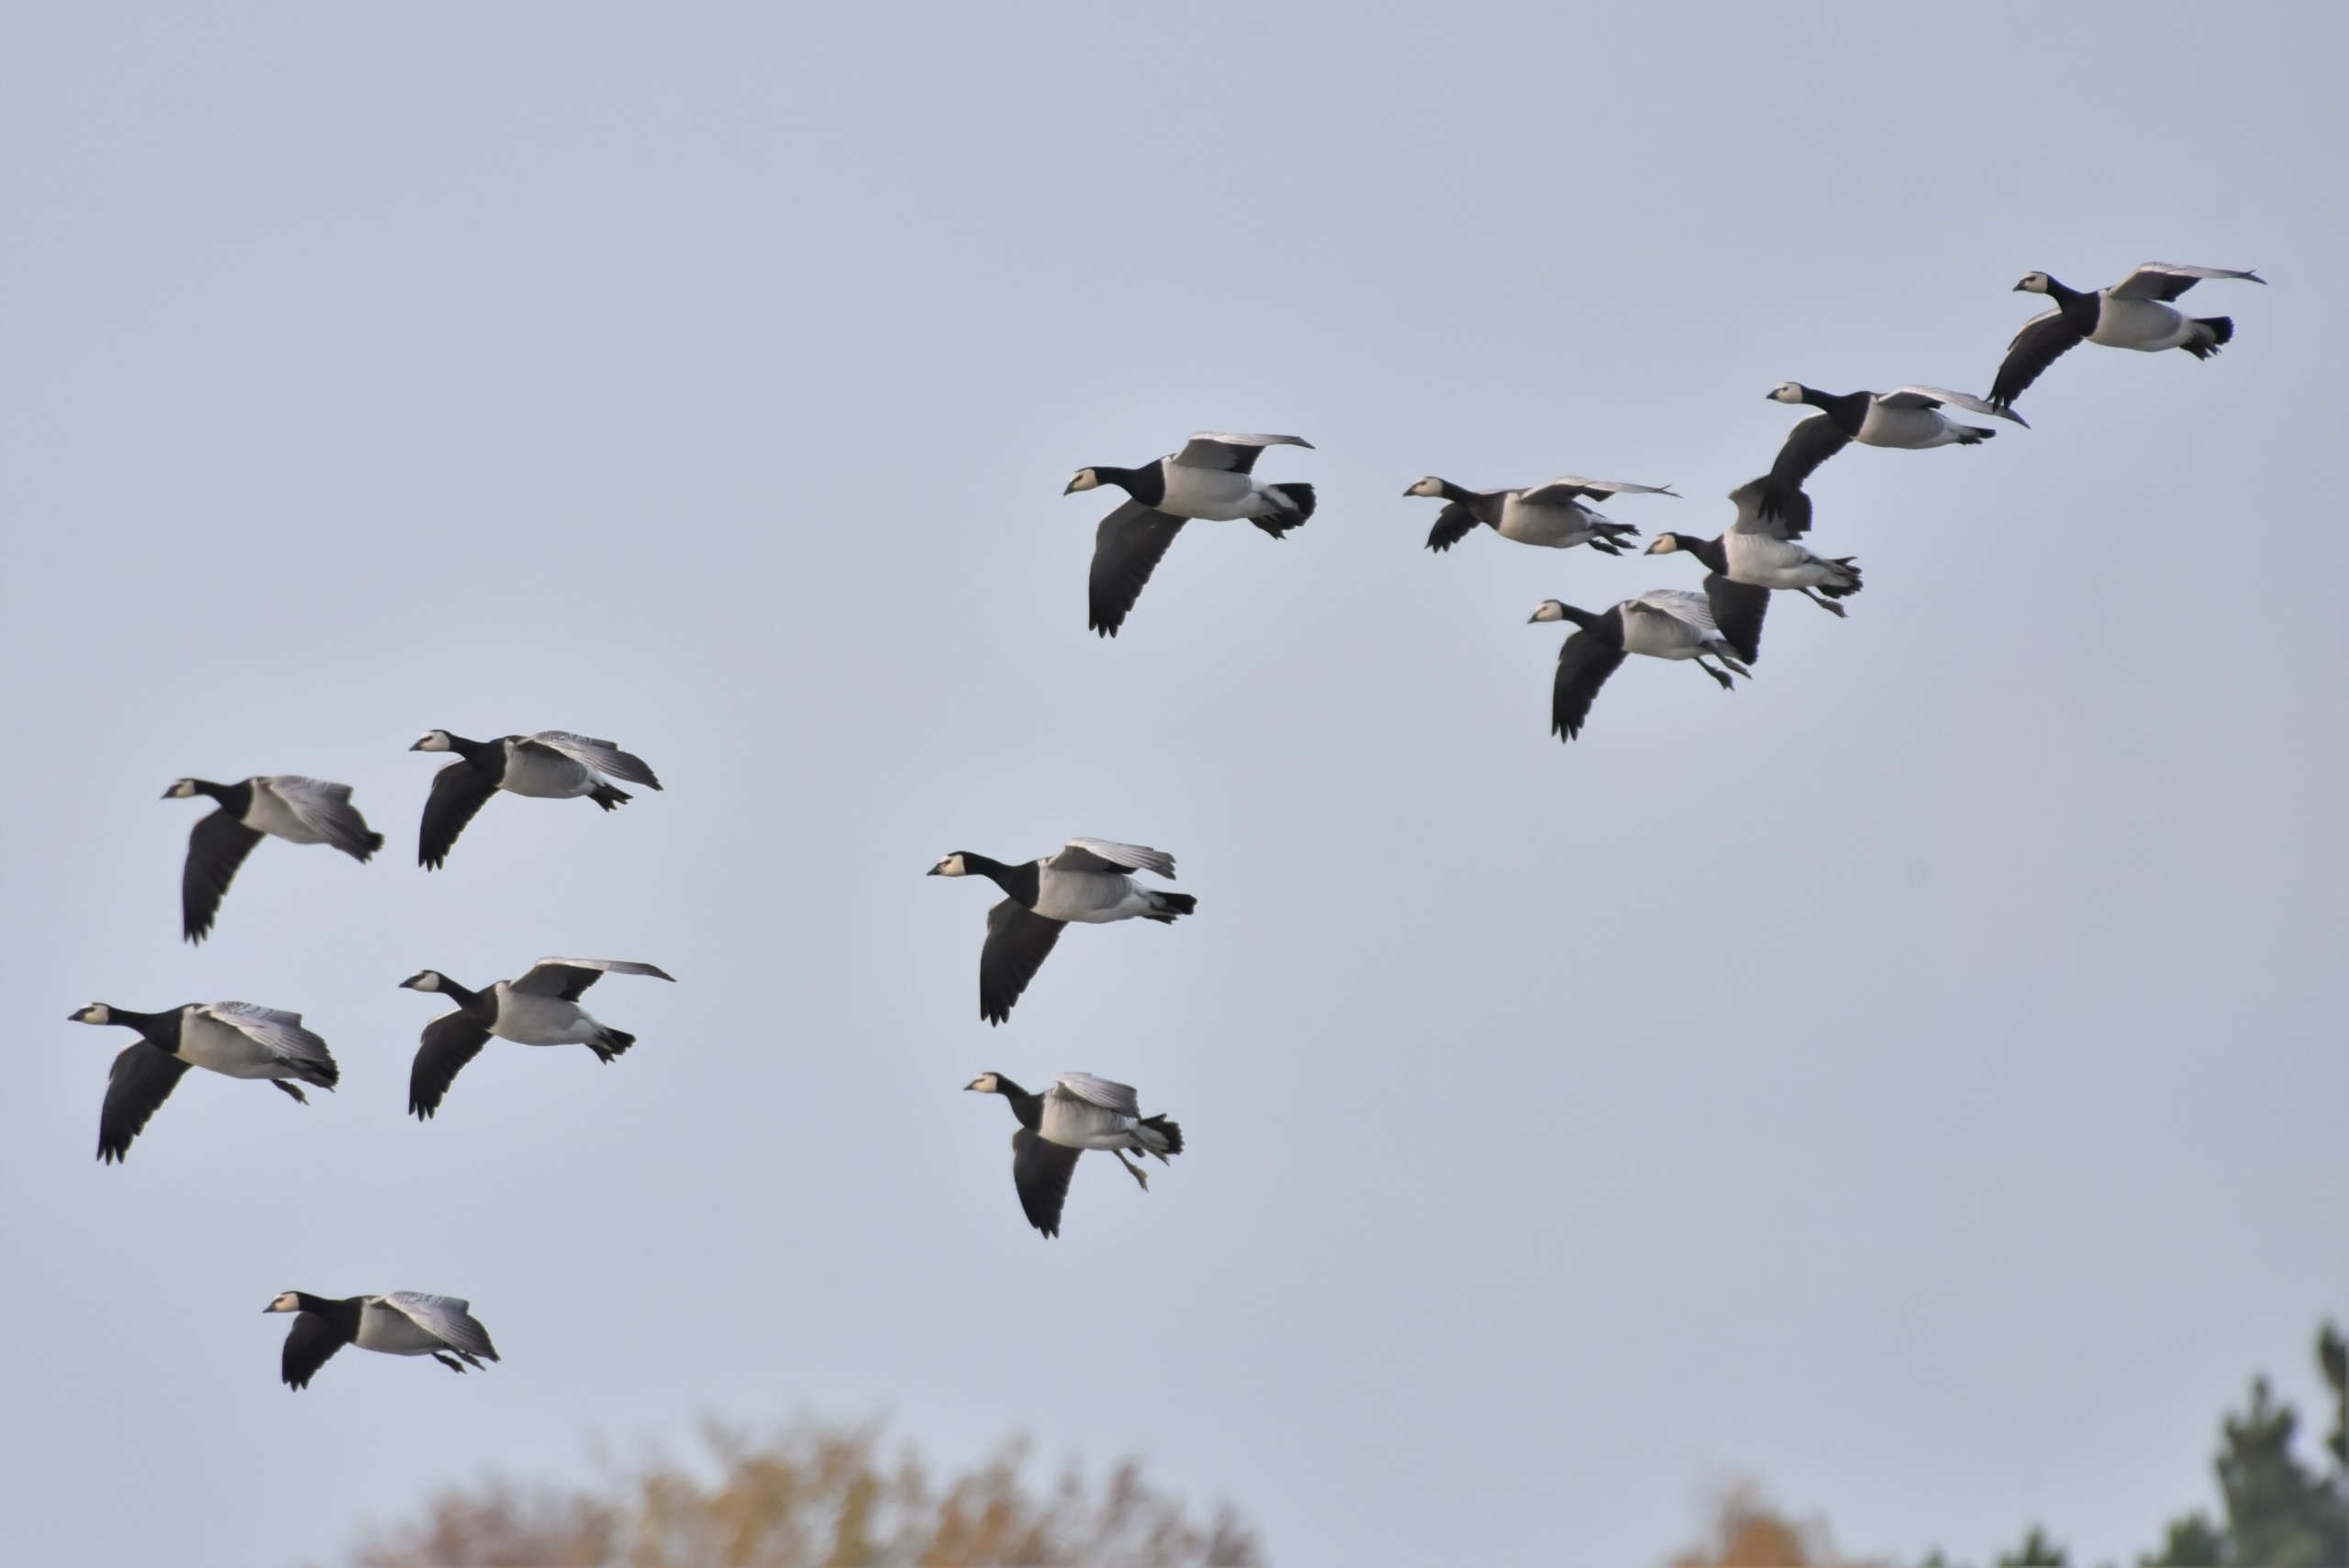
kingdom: Animalia
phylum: Chordata
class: Aves
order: Anseriformes
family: Anatidae
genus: Branta
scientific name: Branta leucopsis
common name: Bramgås
